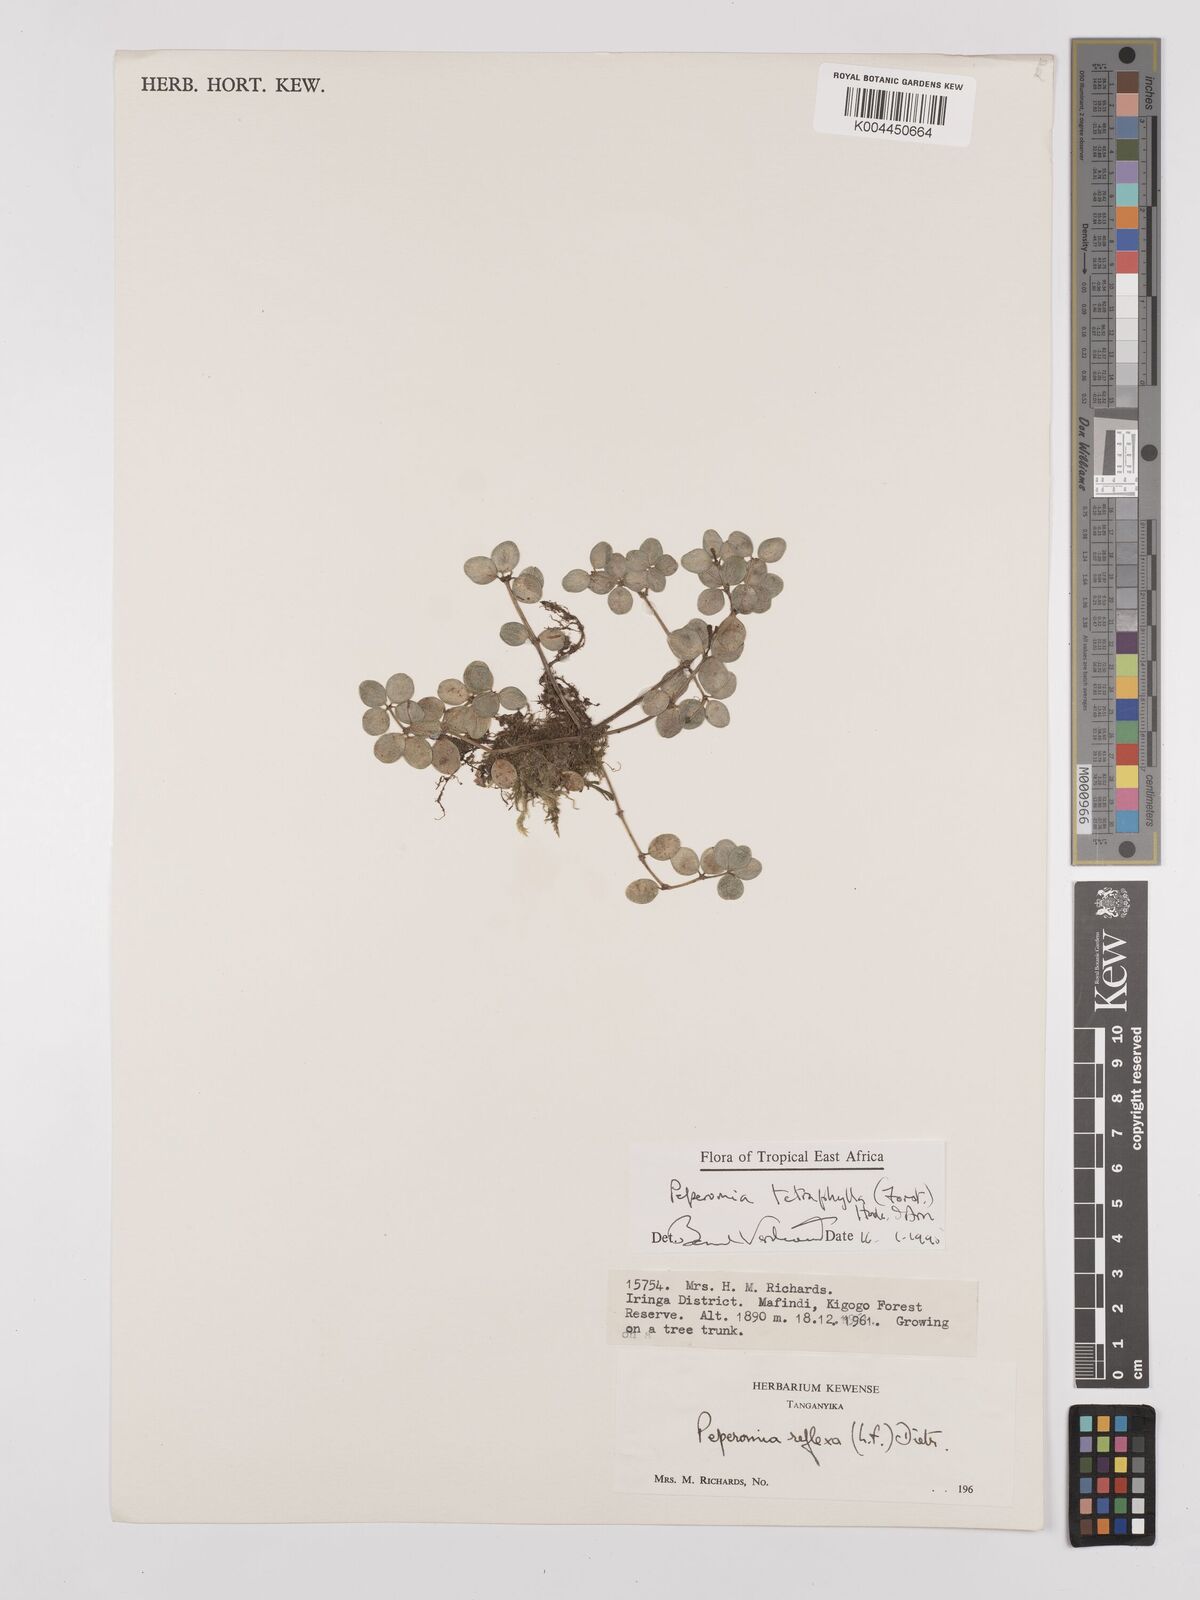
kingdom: Plantae
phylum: Tracheophyta
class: Magnoliopsida
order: Piperales
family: Piperaceae
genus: Peperomia
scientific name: Peperomia tetraphylla
